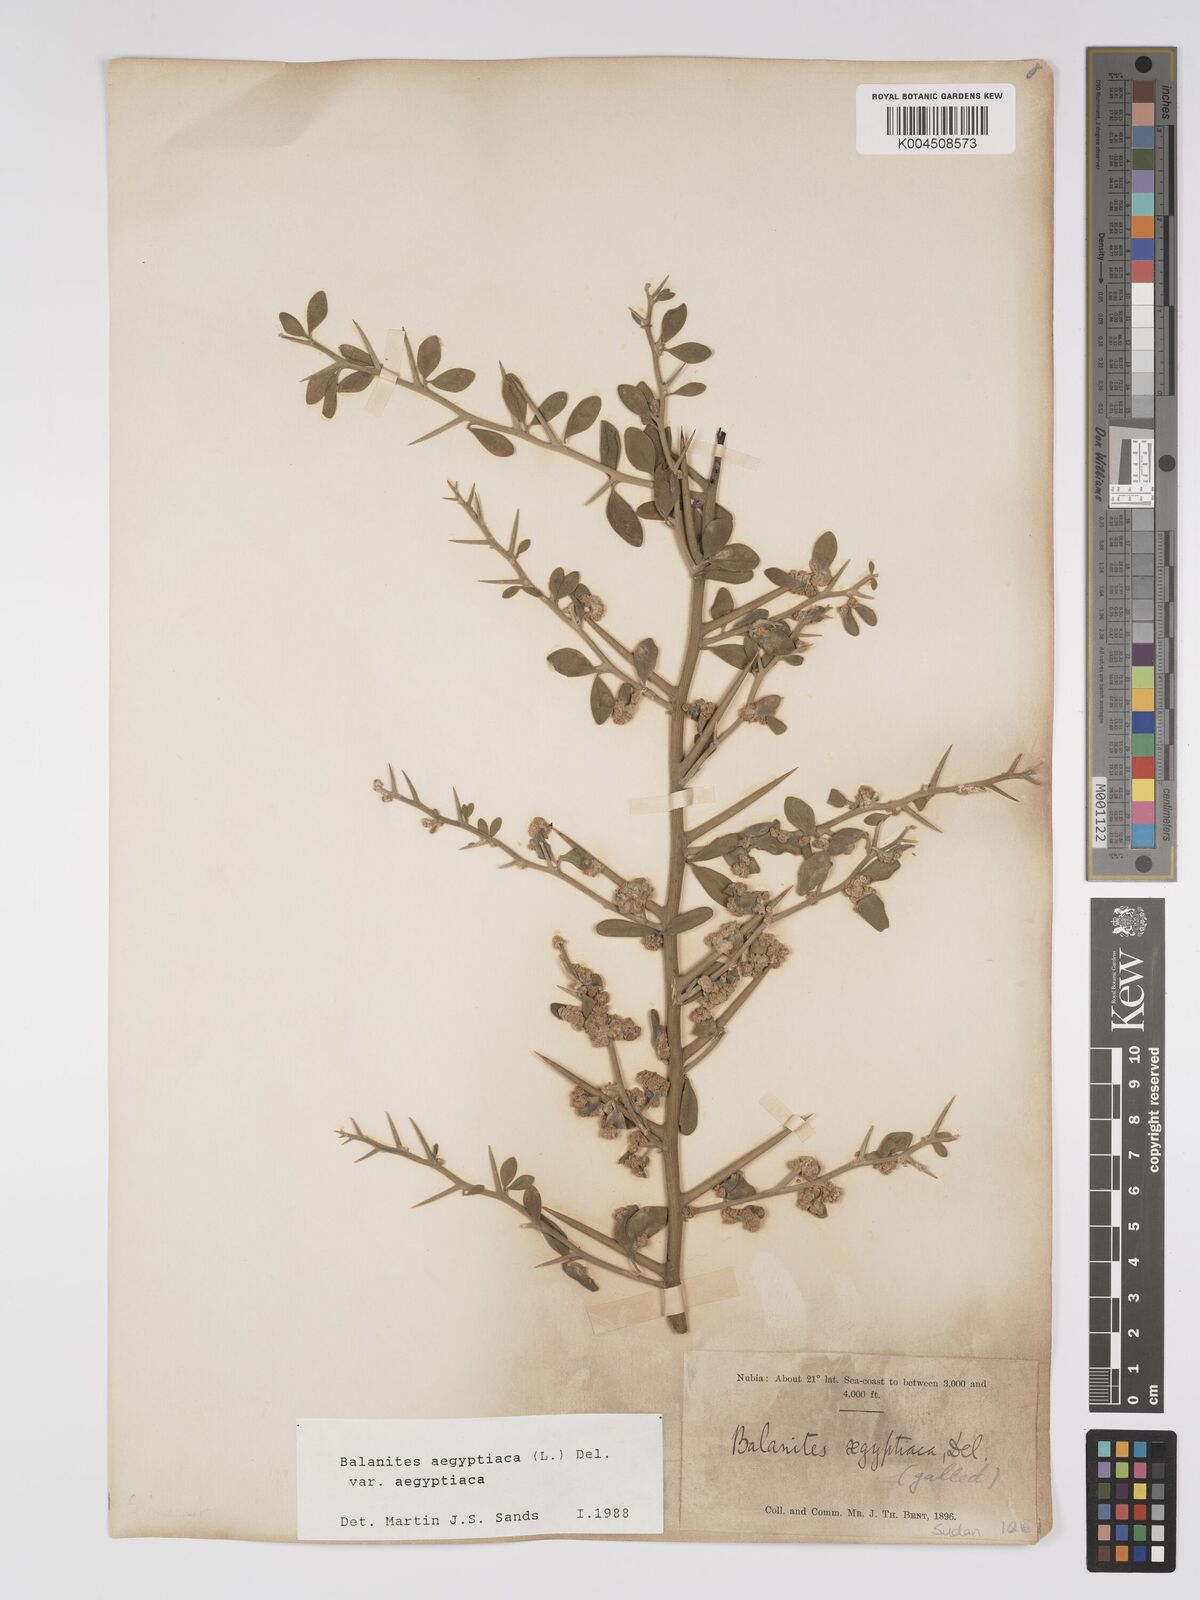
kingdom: Plantae
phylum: Tracheophyta
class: Magnoliopsida
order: Zygophyllales
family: Zygophyllaceae
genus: Balanites
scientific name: Balanites aegyptiaca
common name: Balanites
